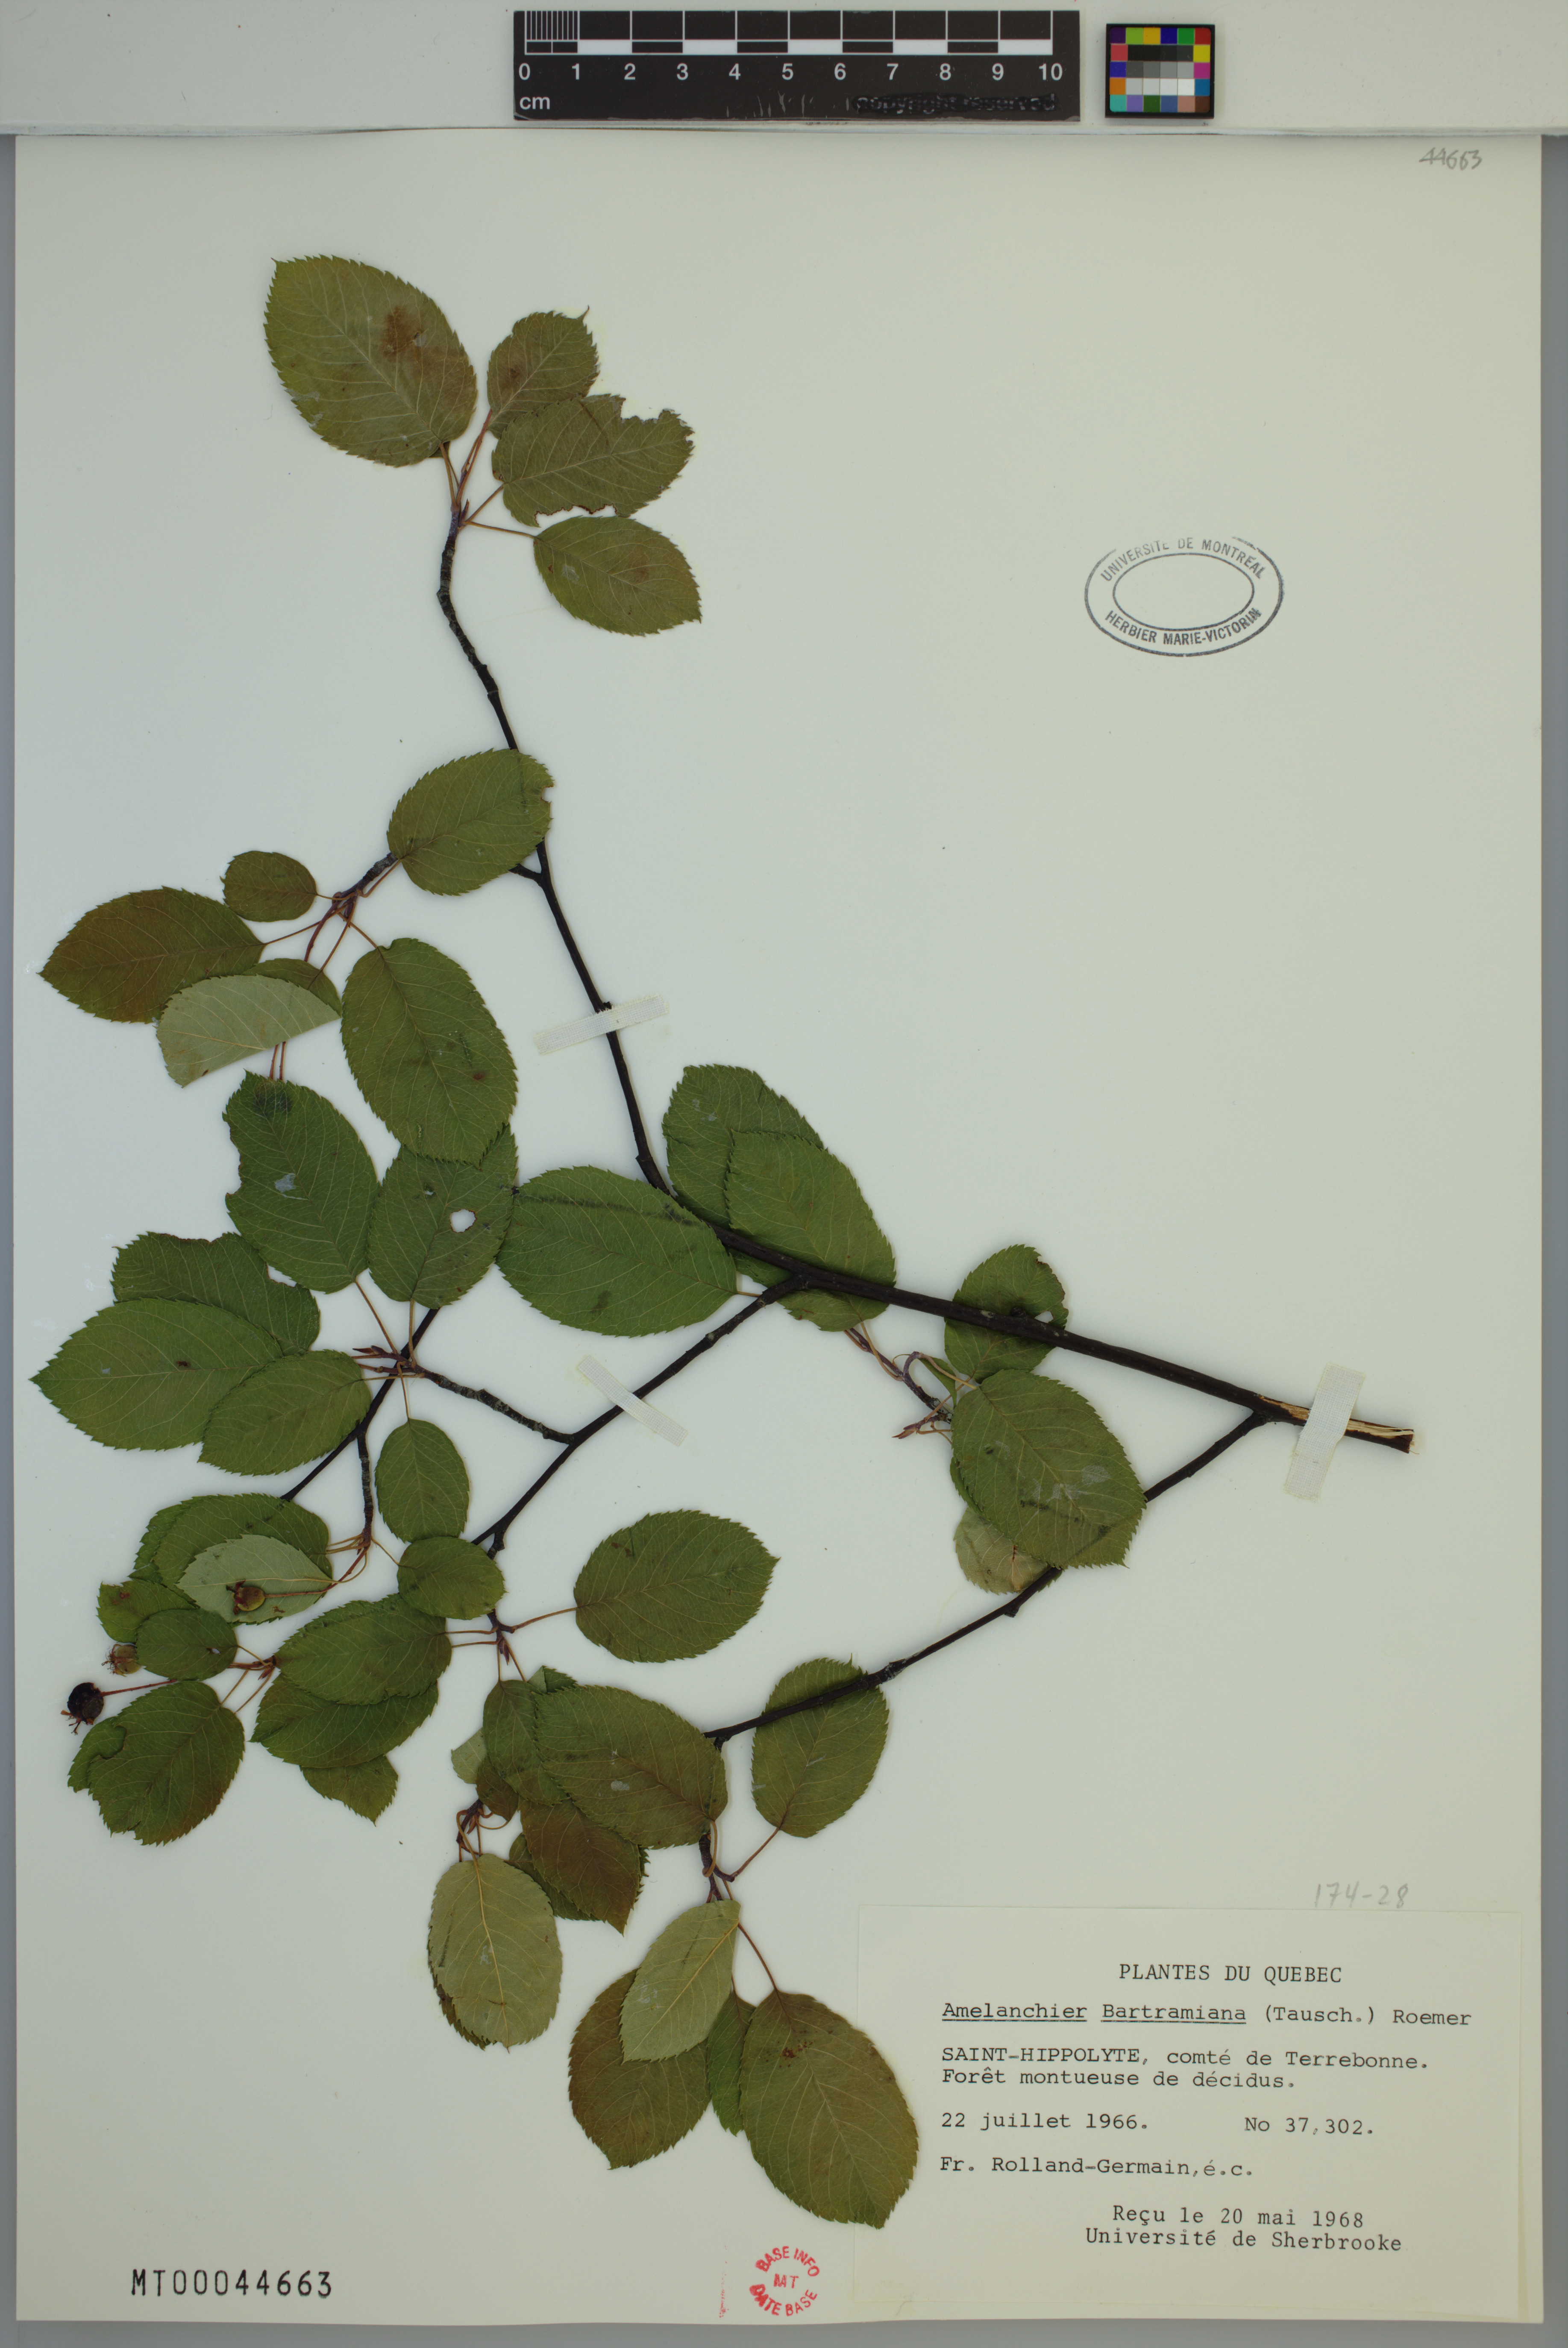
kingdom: Plantae
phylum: Tracheophyta
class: Magnoliopsida
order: Rosales
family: Rosaceae
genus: Amelanchier
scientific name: Amelanchier bartramiana
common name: Mountain serviceberry
